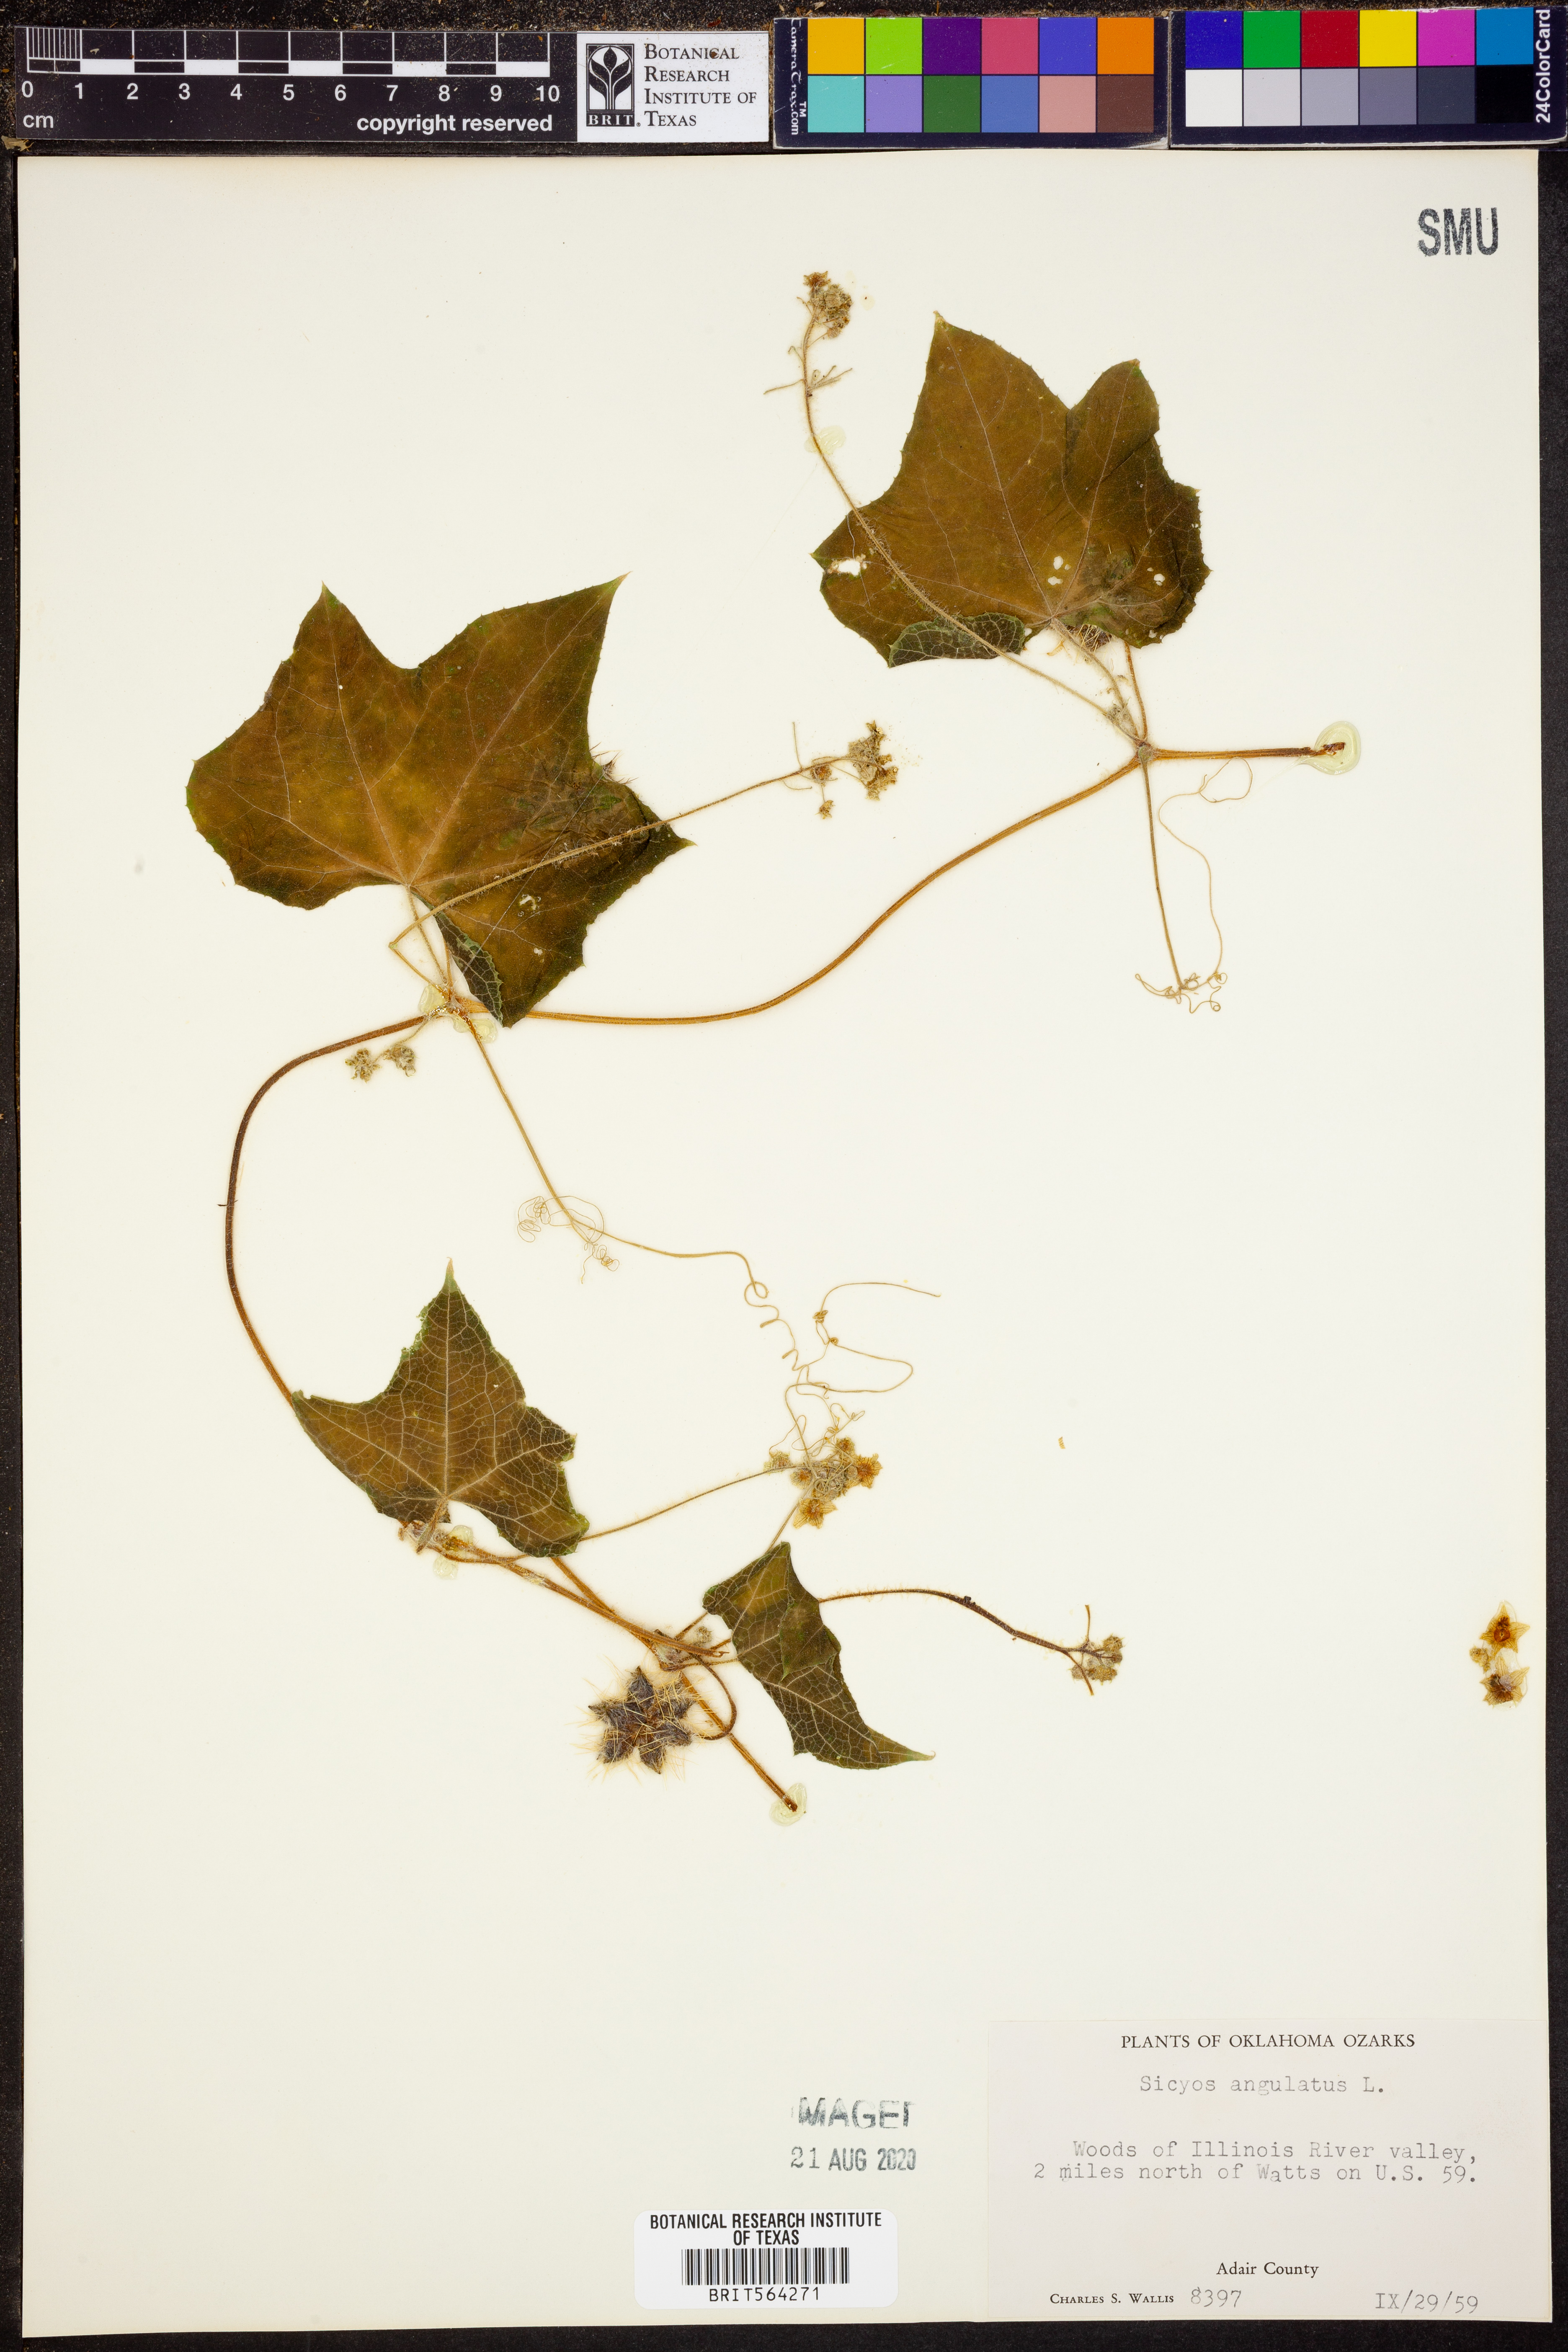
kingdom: Plantae
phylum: Tracheophyta
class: Magnoliopsida
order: Cucurbitales
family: Cucurbitaceae
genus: Sicyos
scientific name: Sicyos angulatus
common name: Angled burr cucumber
